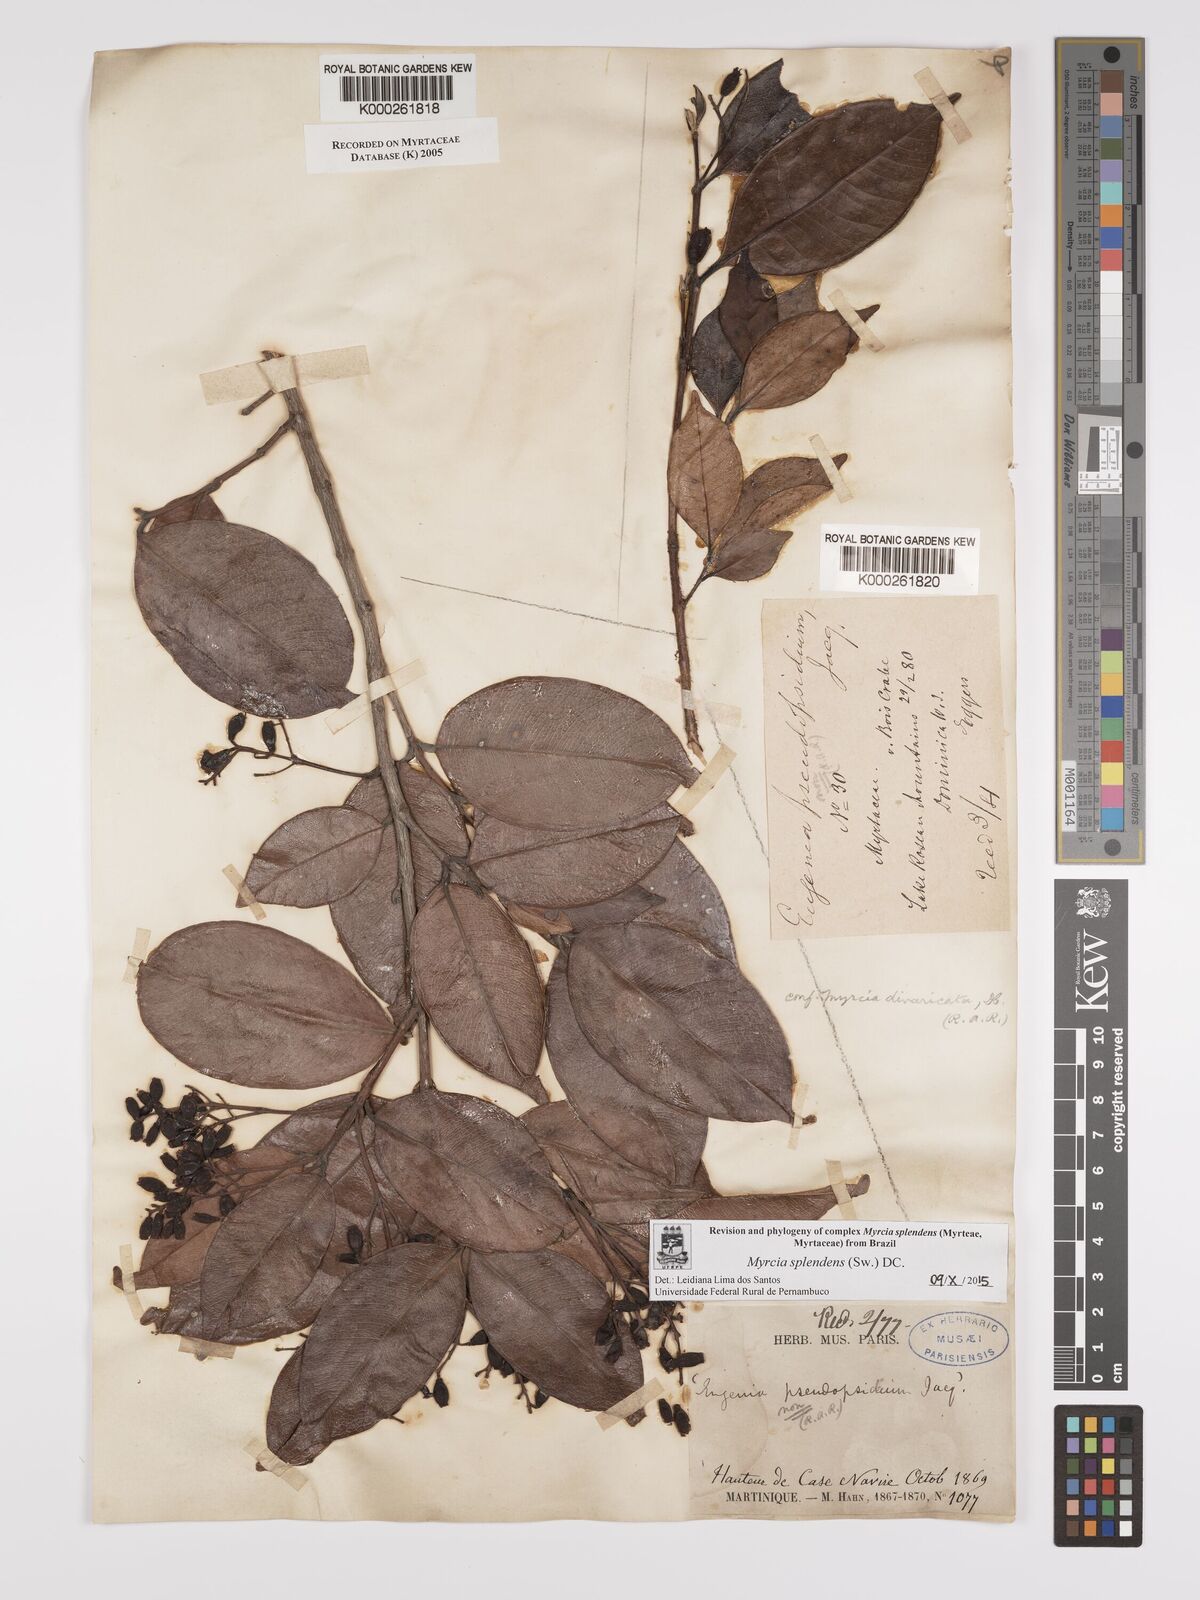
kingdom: Plantae
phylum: Tracheophyta
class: Magnoliopsida
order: Myrtales
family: Myrtaceae
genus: Myrcia
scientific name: Myrcia splendens
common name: Surinam cherry
